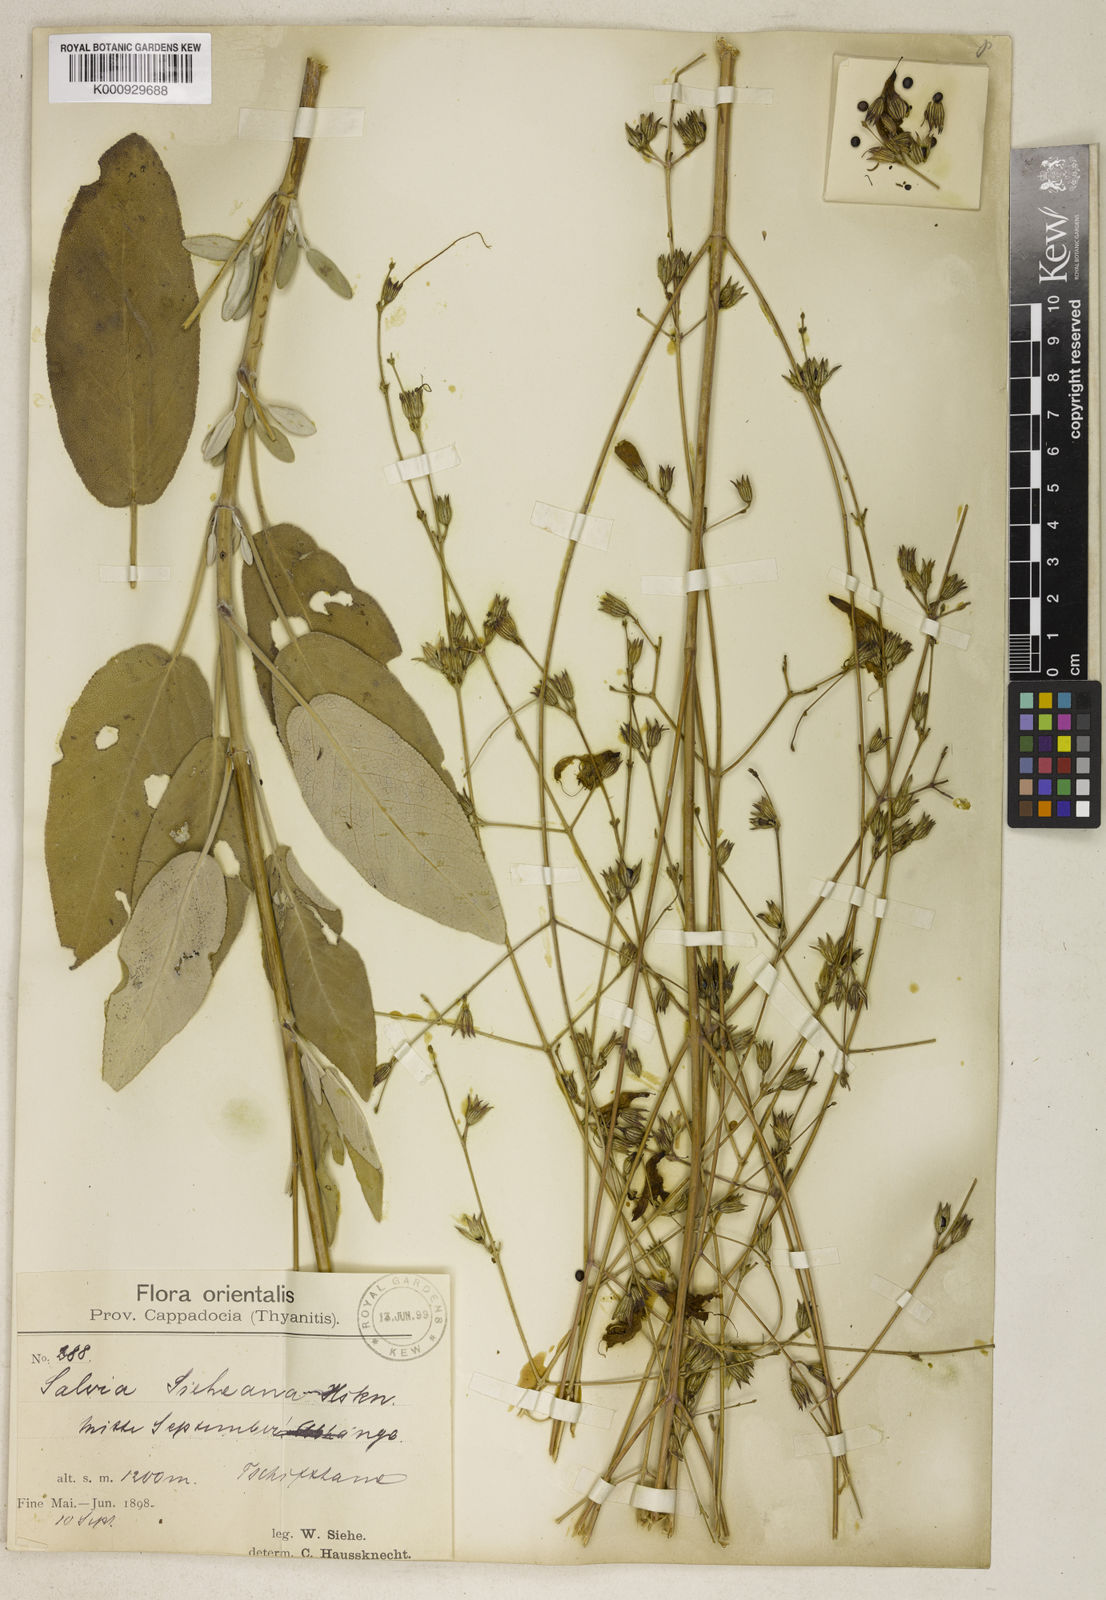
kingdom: Plantae
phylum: Tracheophyta
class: Magnoliopsida
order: Lamiales
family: Lamiaceae
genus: Salvia
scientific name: Salvia aucheri
